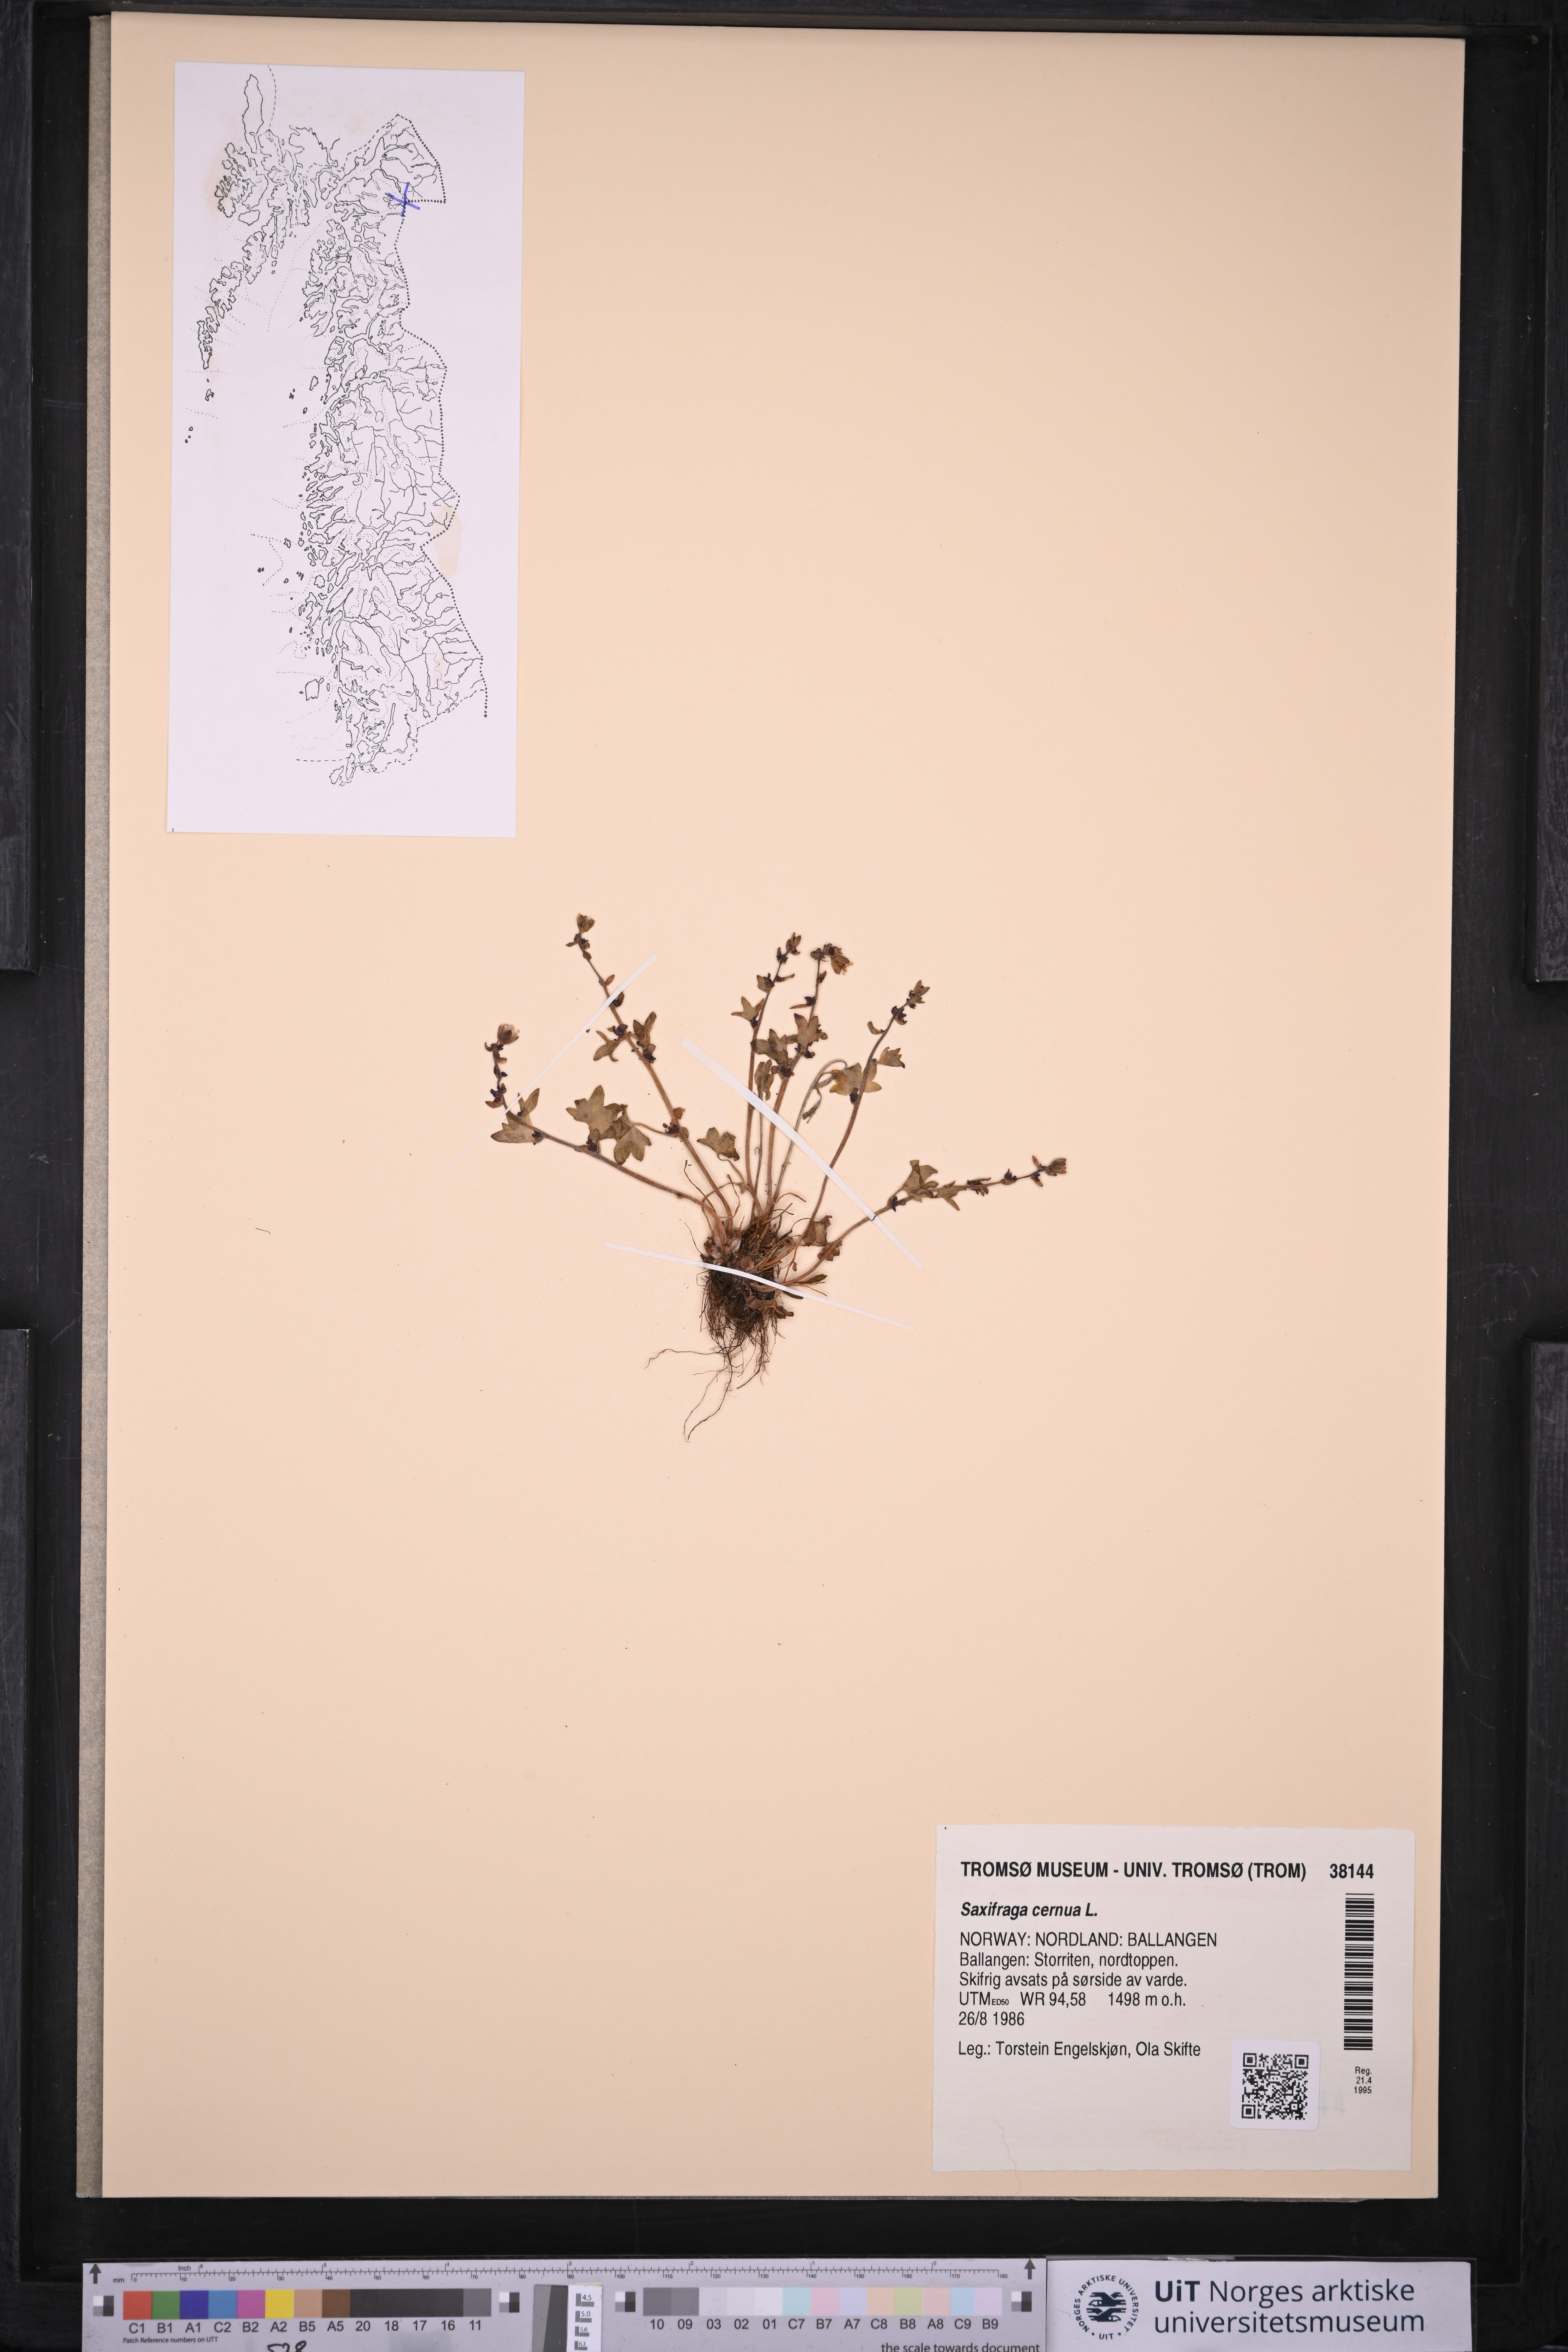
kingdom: Plantae
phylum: Tracheophyta
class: Magnoliopsida
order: Saxifragales
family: Saxifragaceae
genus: Saxifraga
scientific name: Saxifraga cernua
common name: Drooping saxifrage
